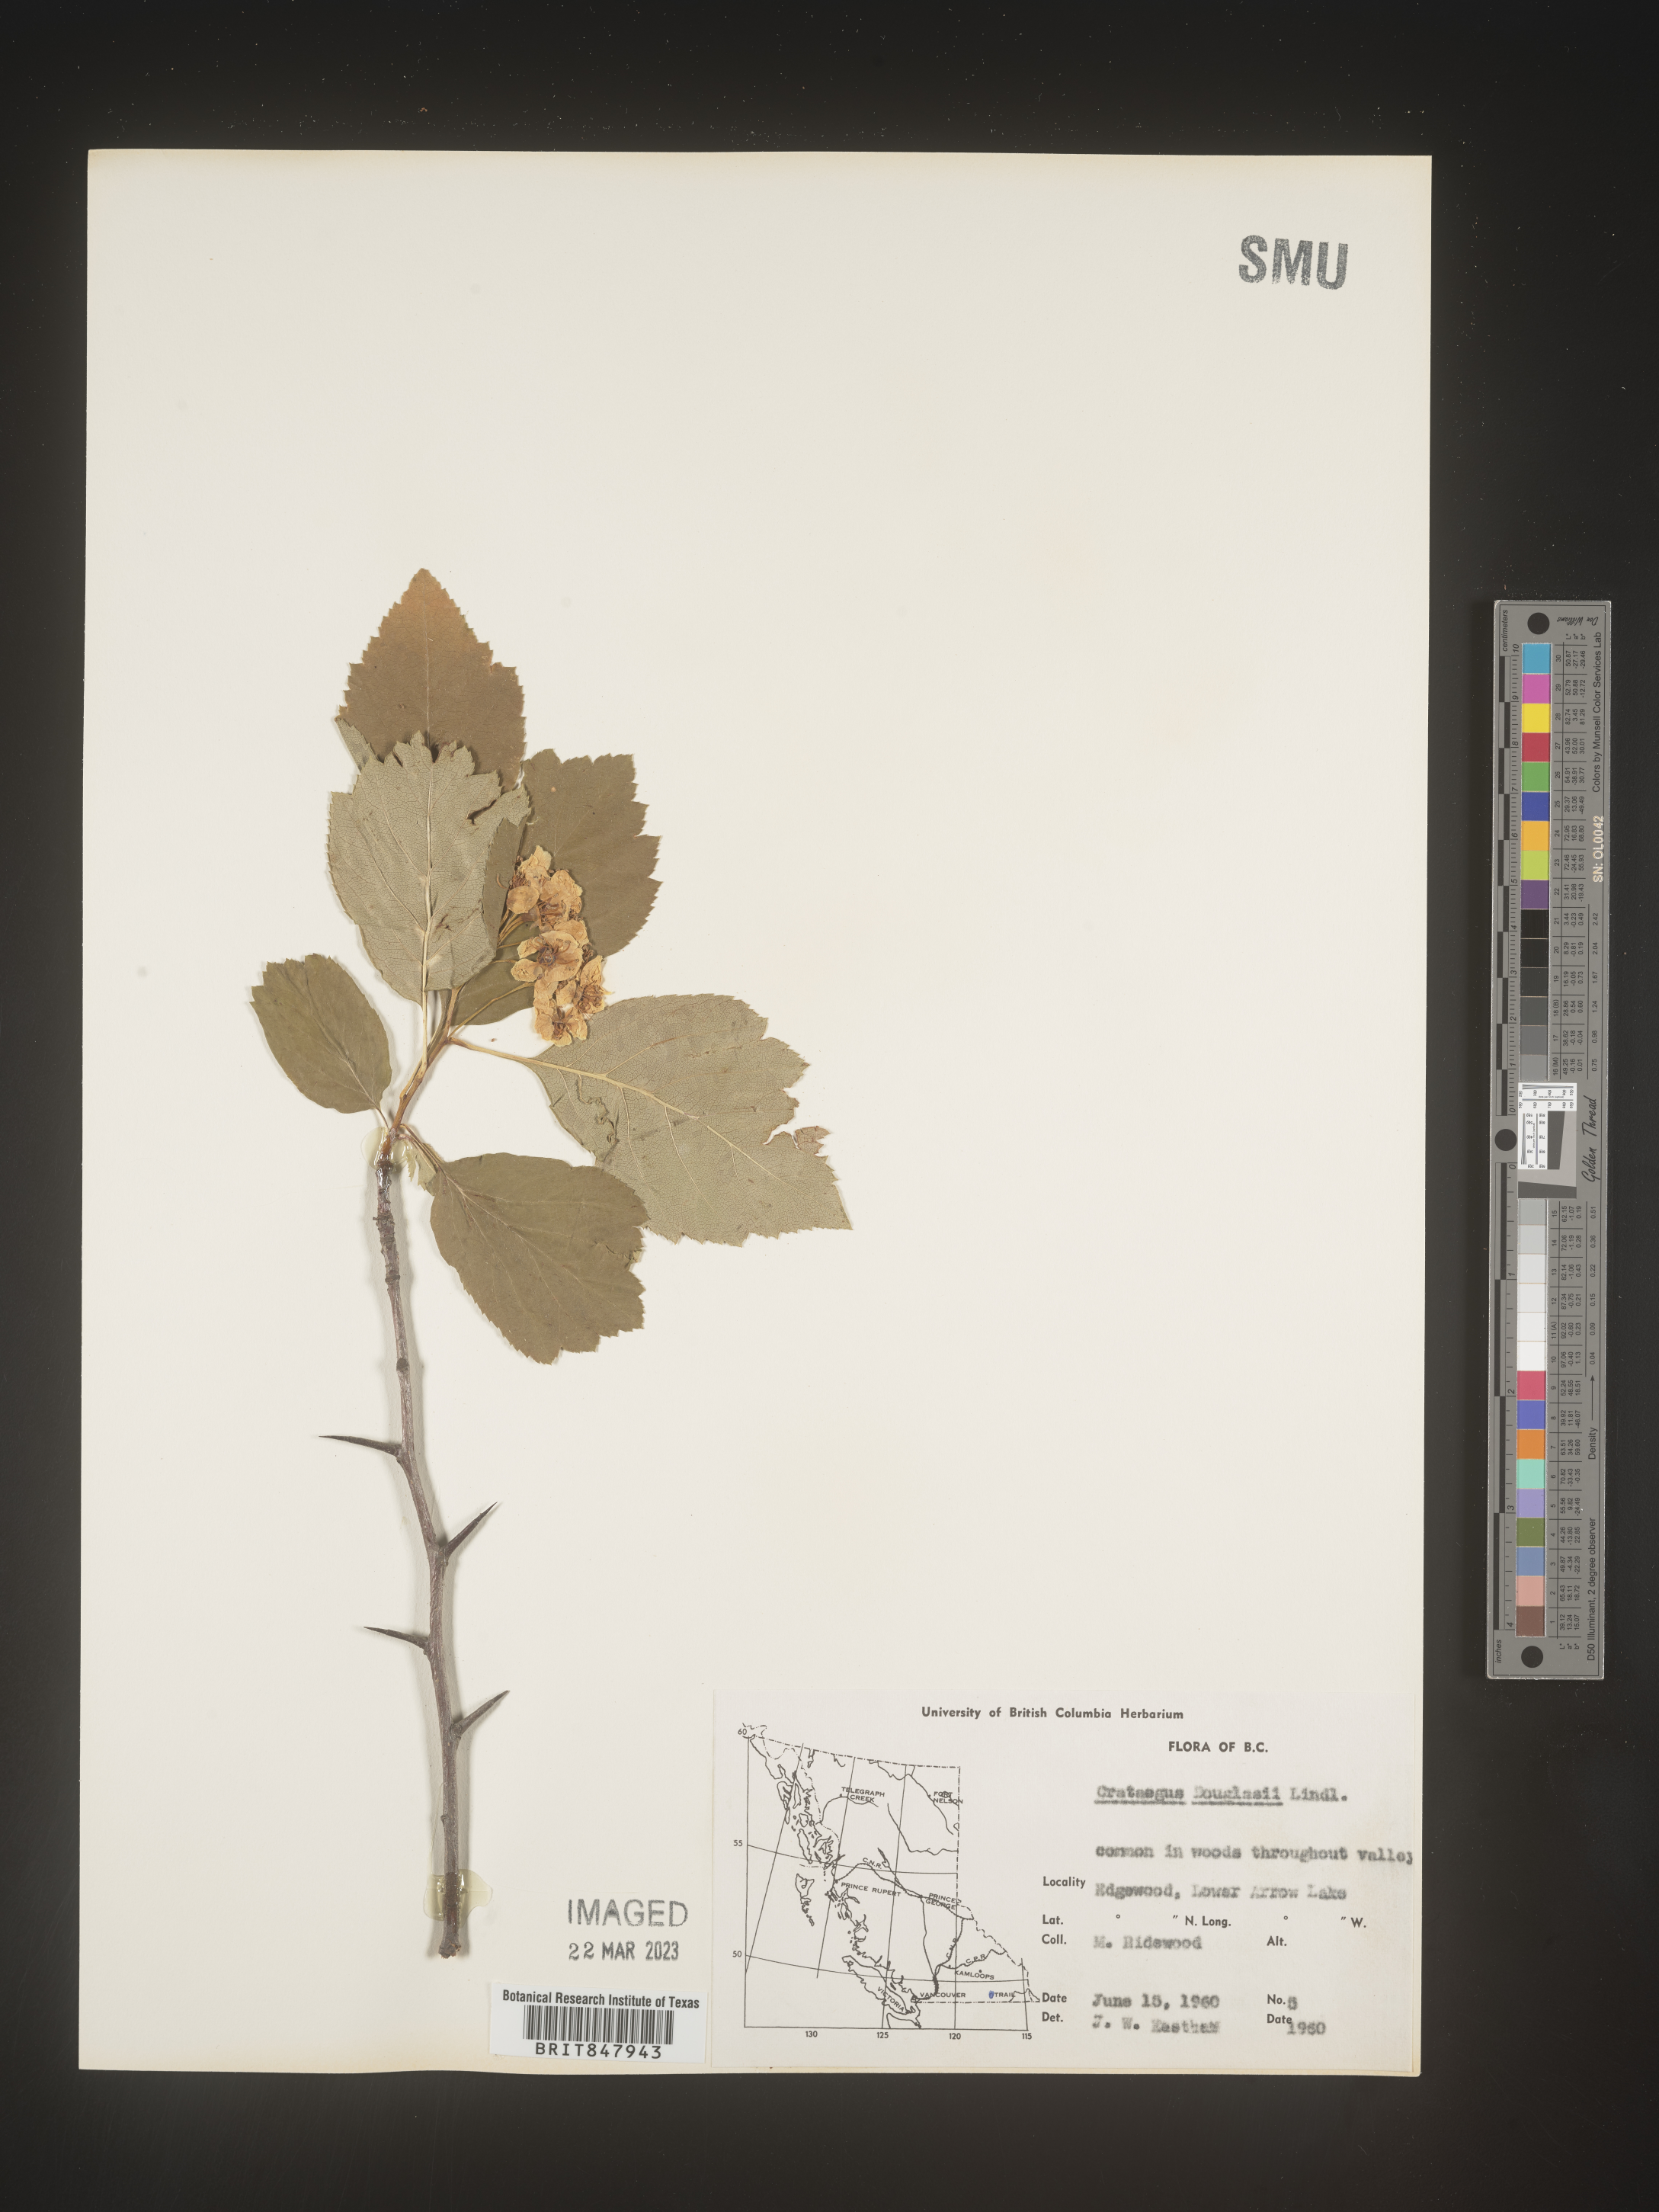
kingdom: Plantae
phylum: Tracheophyta
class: Magnoliopsida
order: Rosales
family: Rosaceae
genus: Crataegus
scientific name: Crataegus douglasii
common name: Black hawthorn
